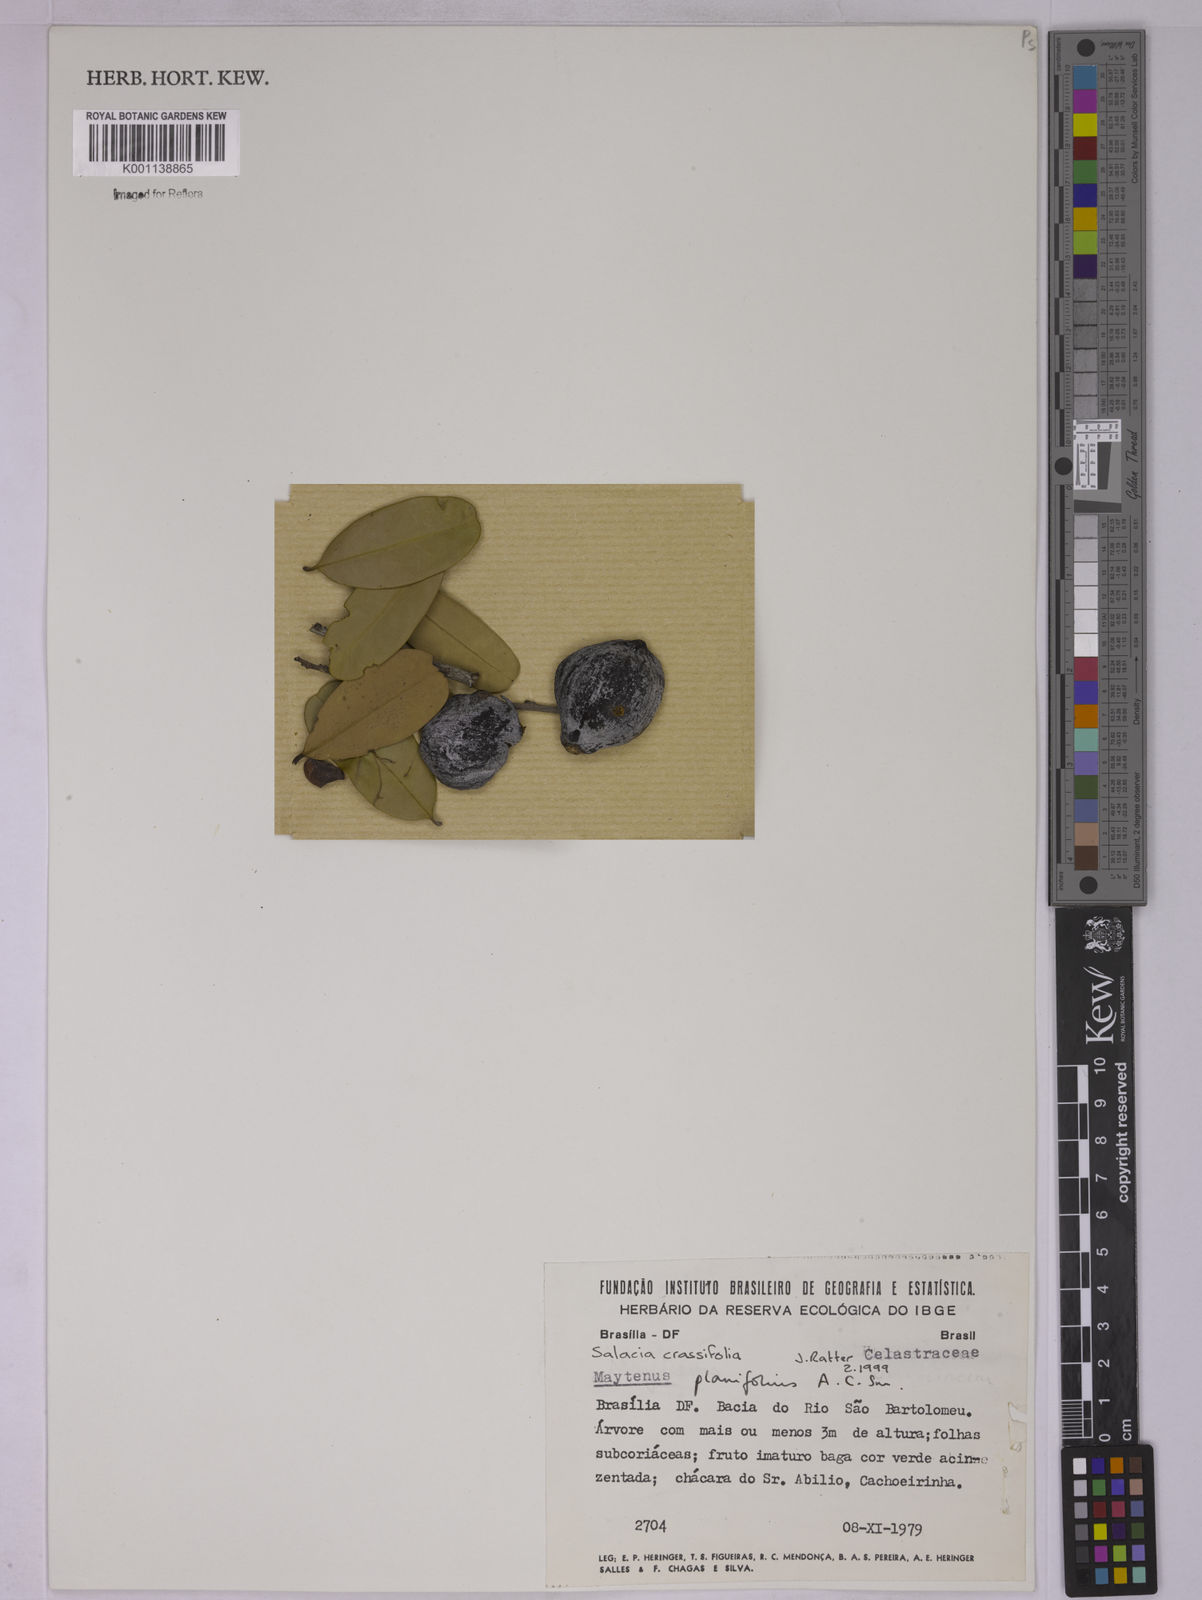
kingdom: Plantae
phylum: Tracheophyta
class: Magnoliopsida
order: Celastrales
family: Celastraceae
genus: Salacia
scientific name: Salacia crassifolia
